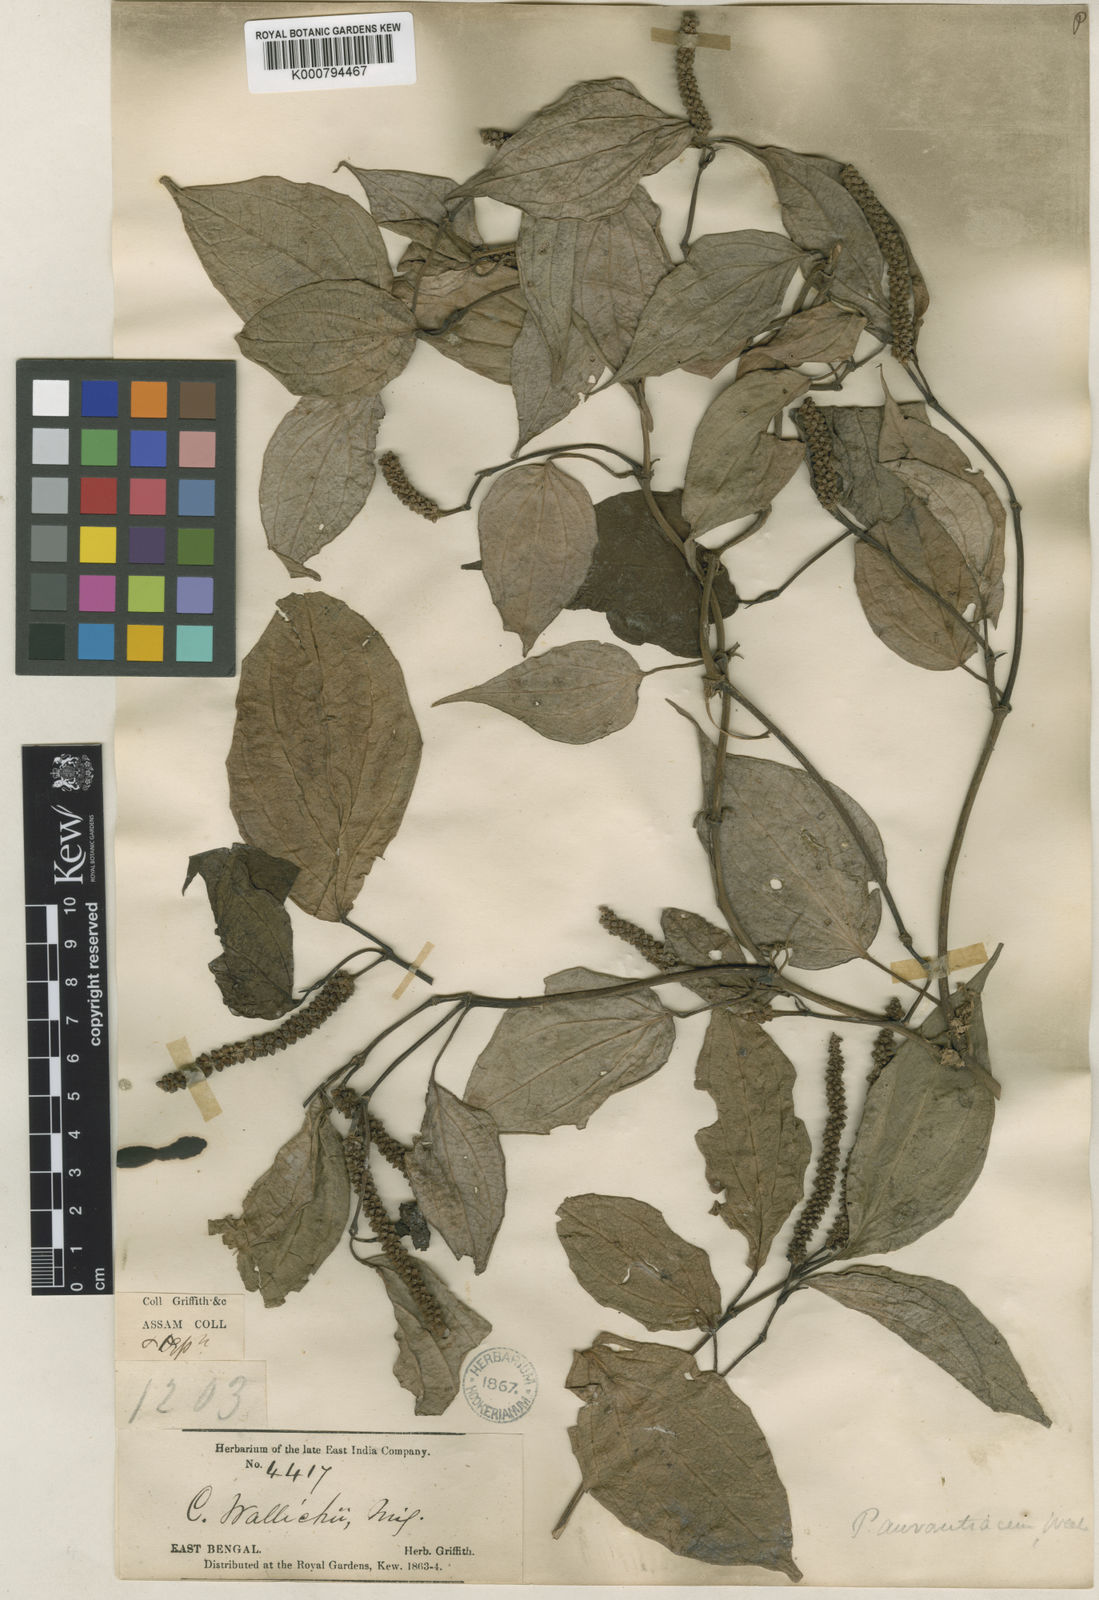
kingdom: Plantae
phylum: Tracheophyta
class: Magnoliopsida
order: Piperales
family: Piperaceae
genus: Piper
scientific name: Piper wallichii
